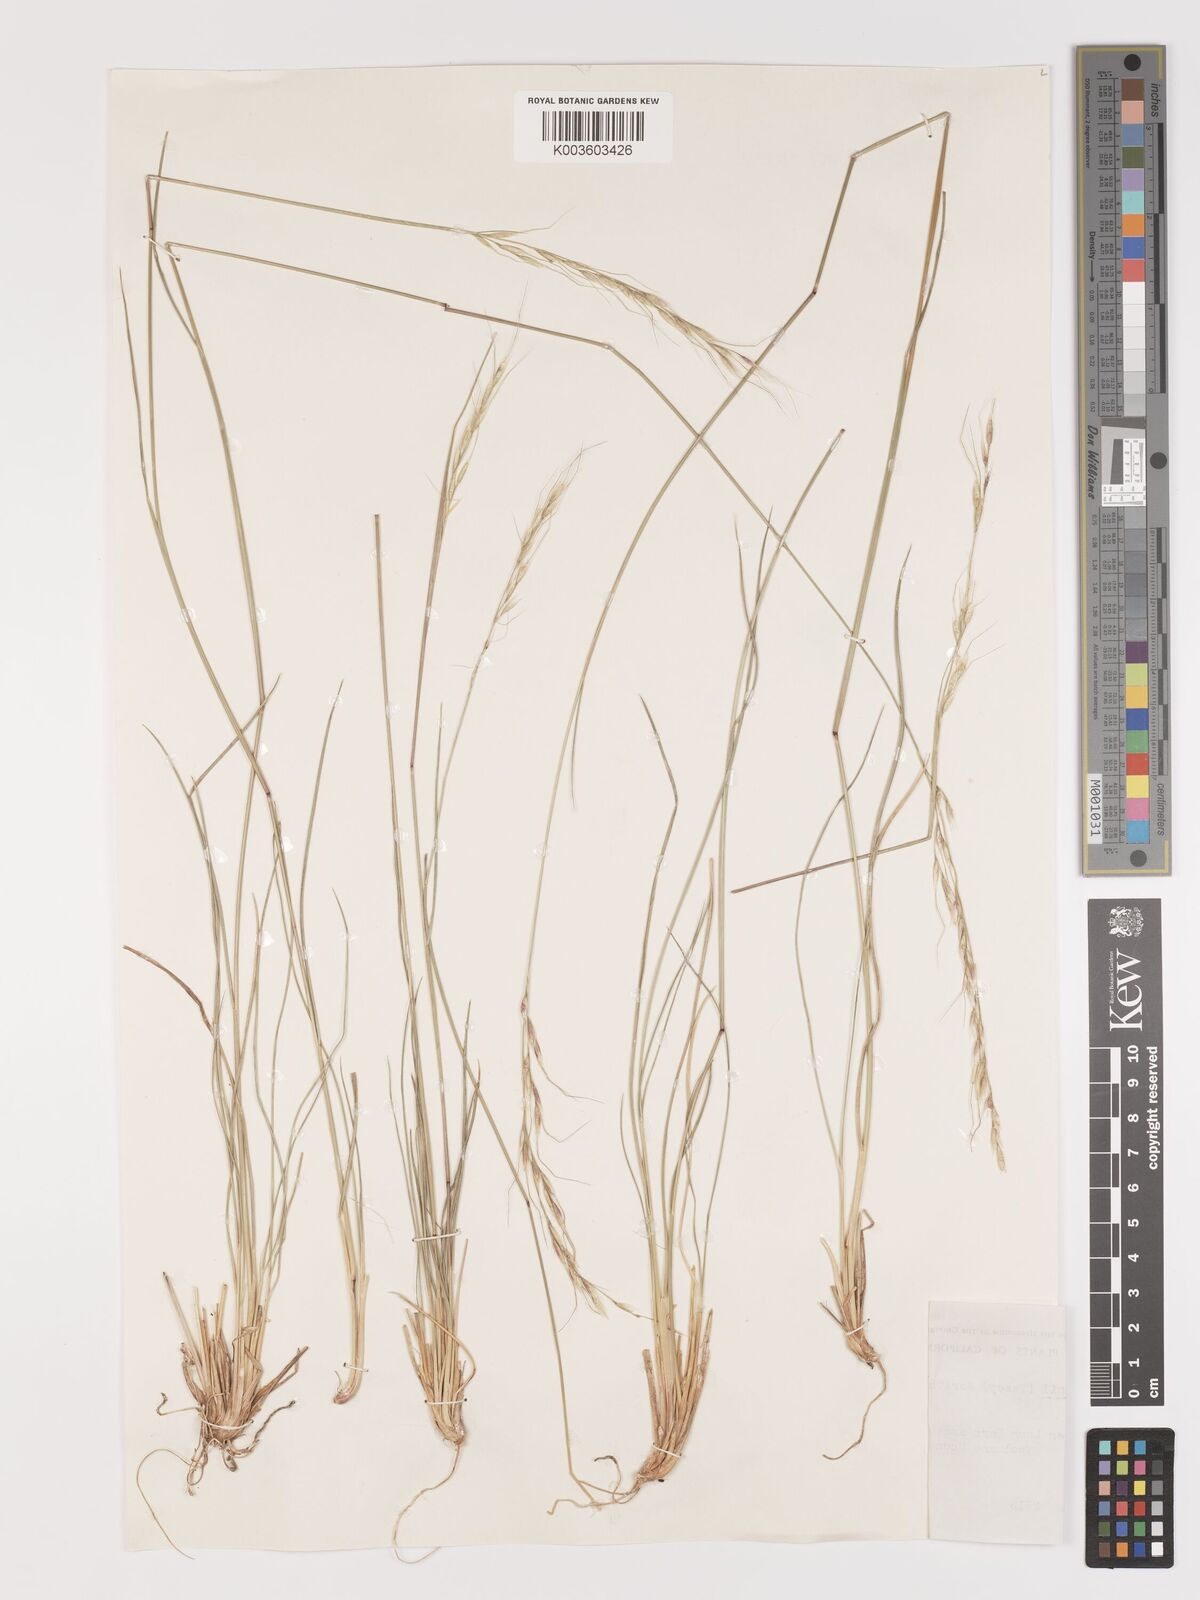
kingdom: Plantae
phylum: Tracheophyta
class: Liliopsida
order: Poales
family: Poaceae
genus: Eriocoma
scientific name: Eriocoma lemmonii
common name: Lemmon's needlegrass
